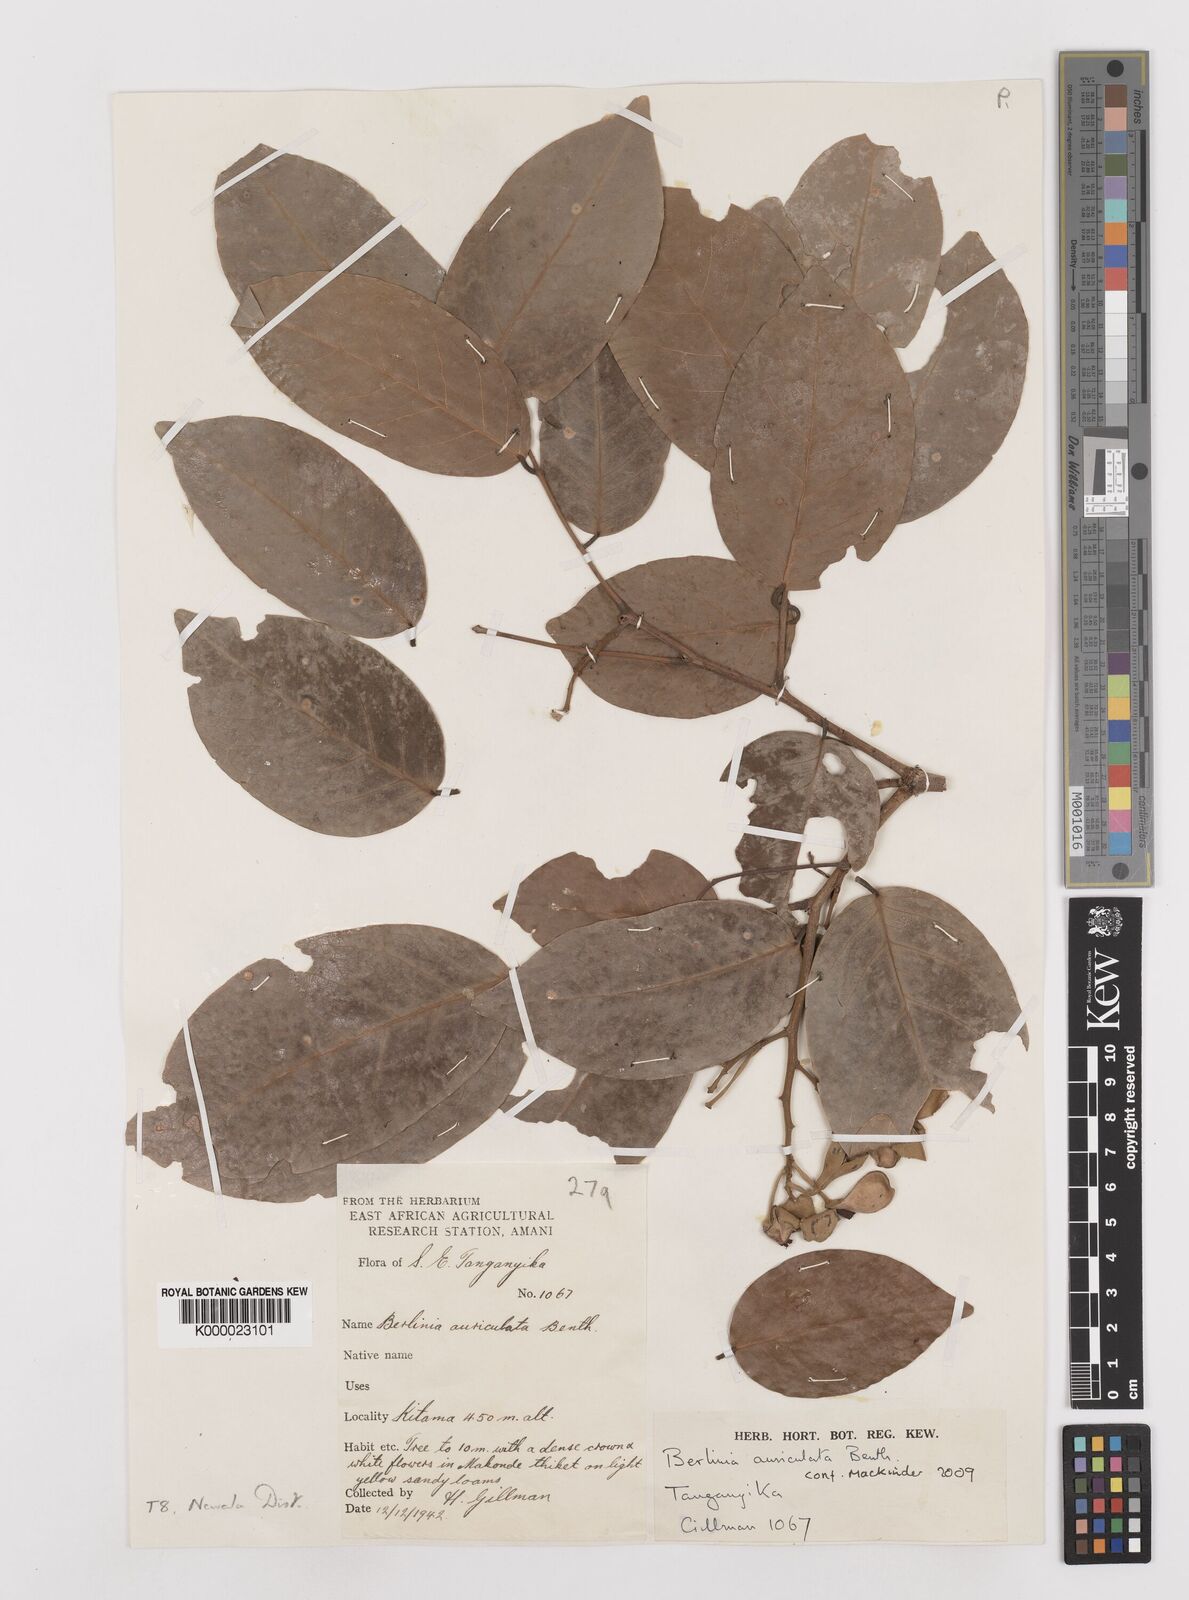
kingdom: Plantae
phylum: Tracheophyta
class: Magnoliopsida
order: Fabales
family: Fabaceae
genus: Berlinia
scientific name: Berlinia orientalis
